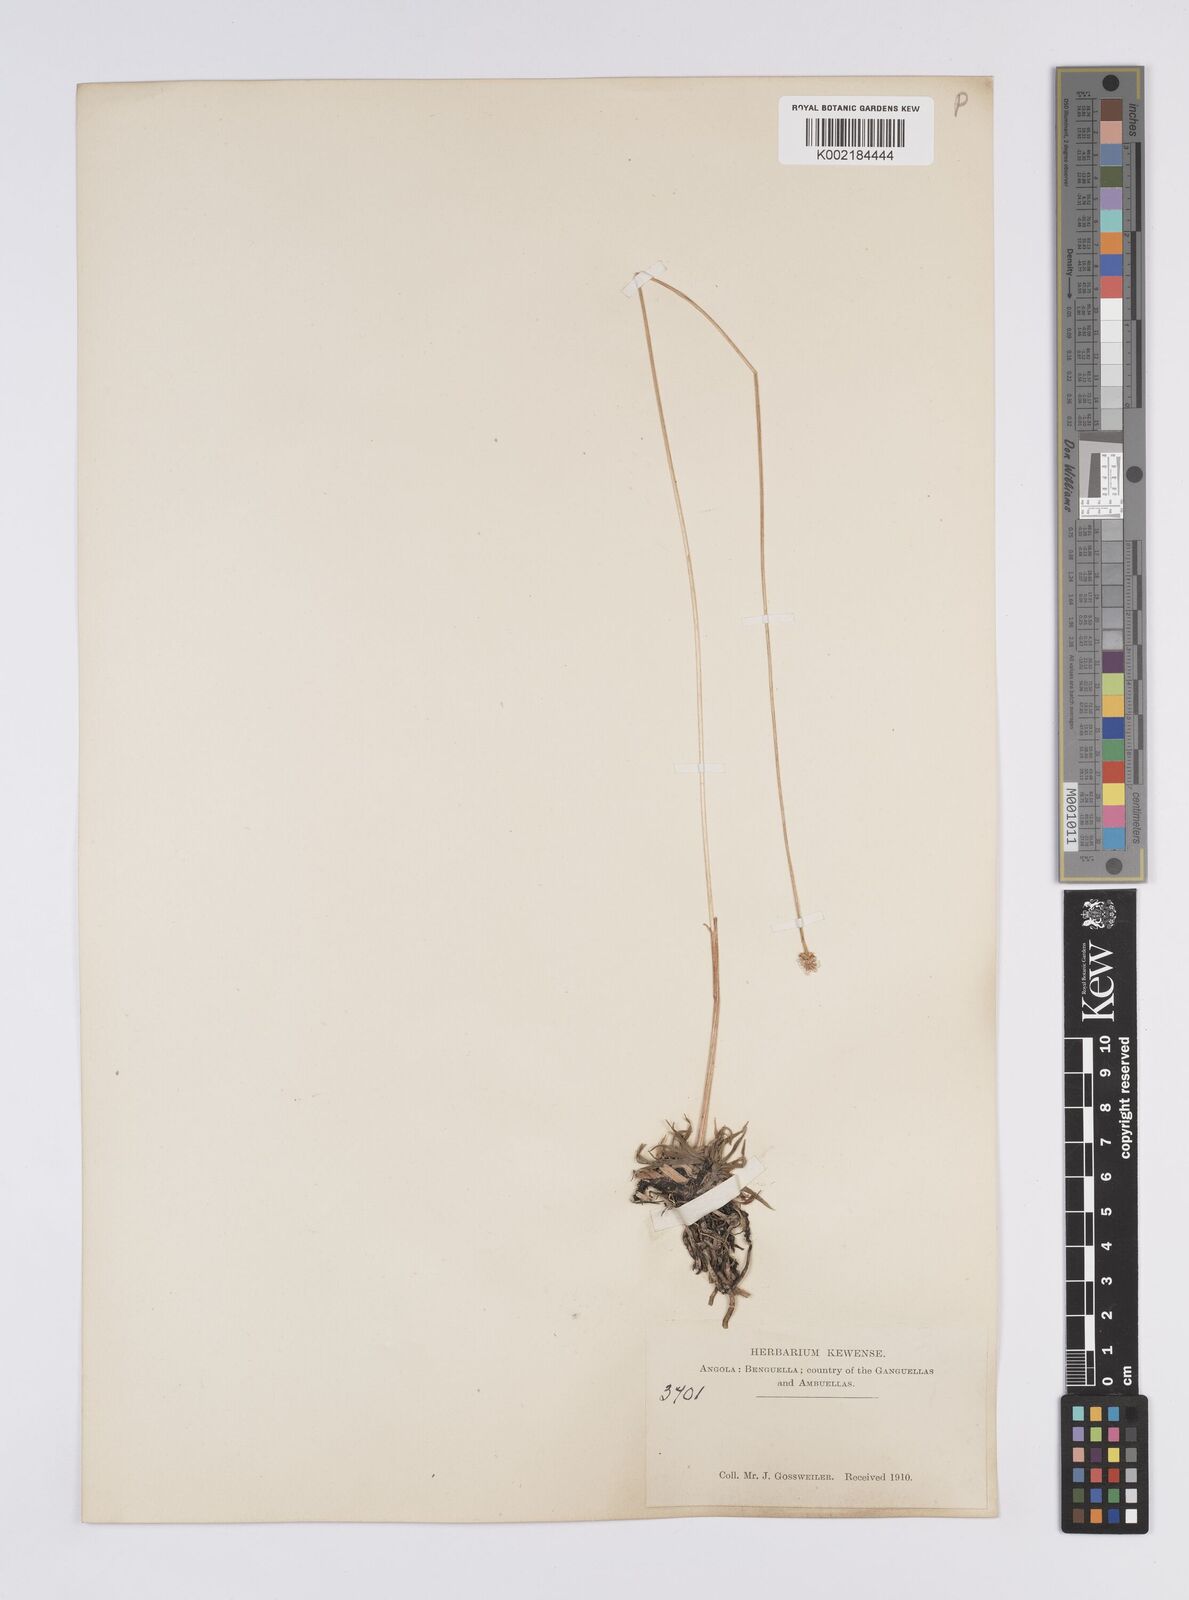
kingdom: Plantae
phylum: Tracheophyta
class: Liliopsida
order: Poales
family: Eriocaulaceae
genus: Eriocaulon
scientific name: Eriocaulon
